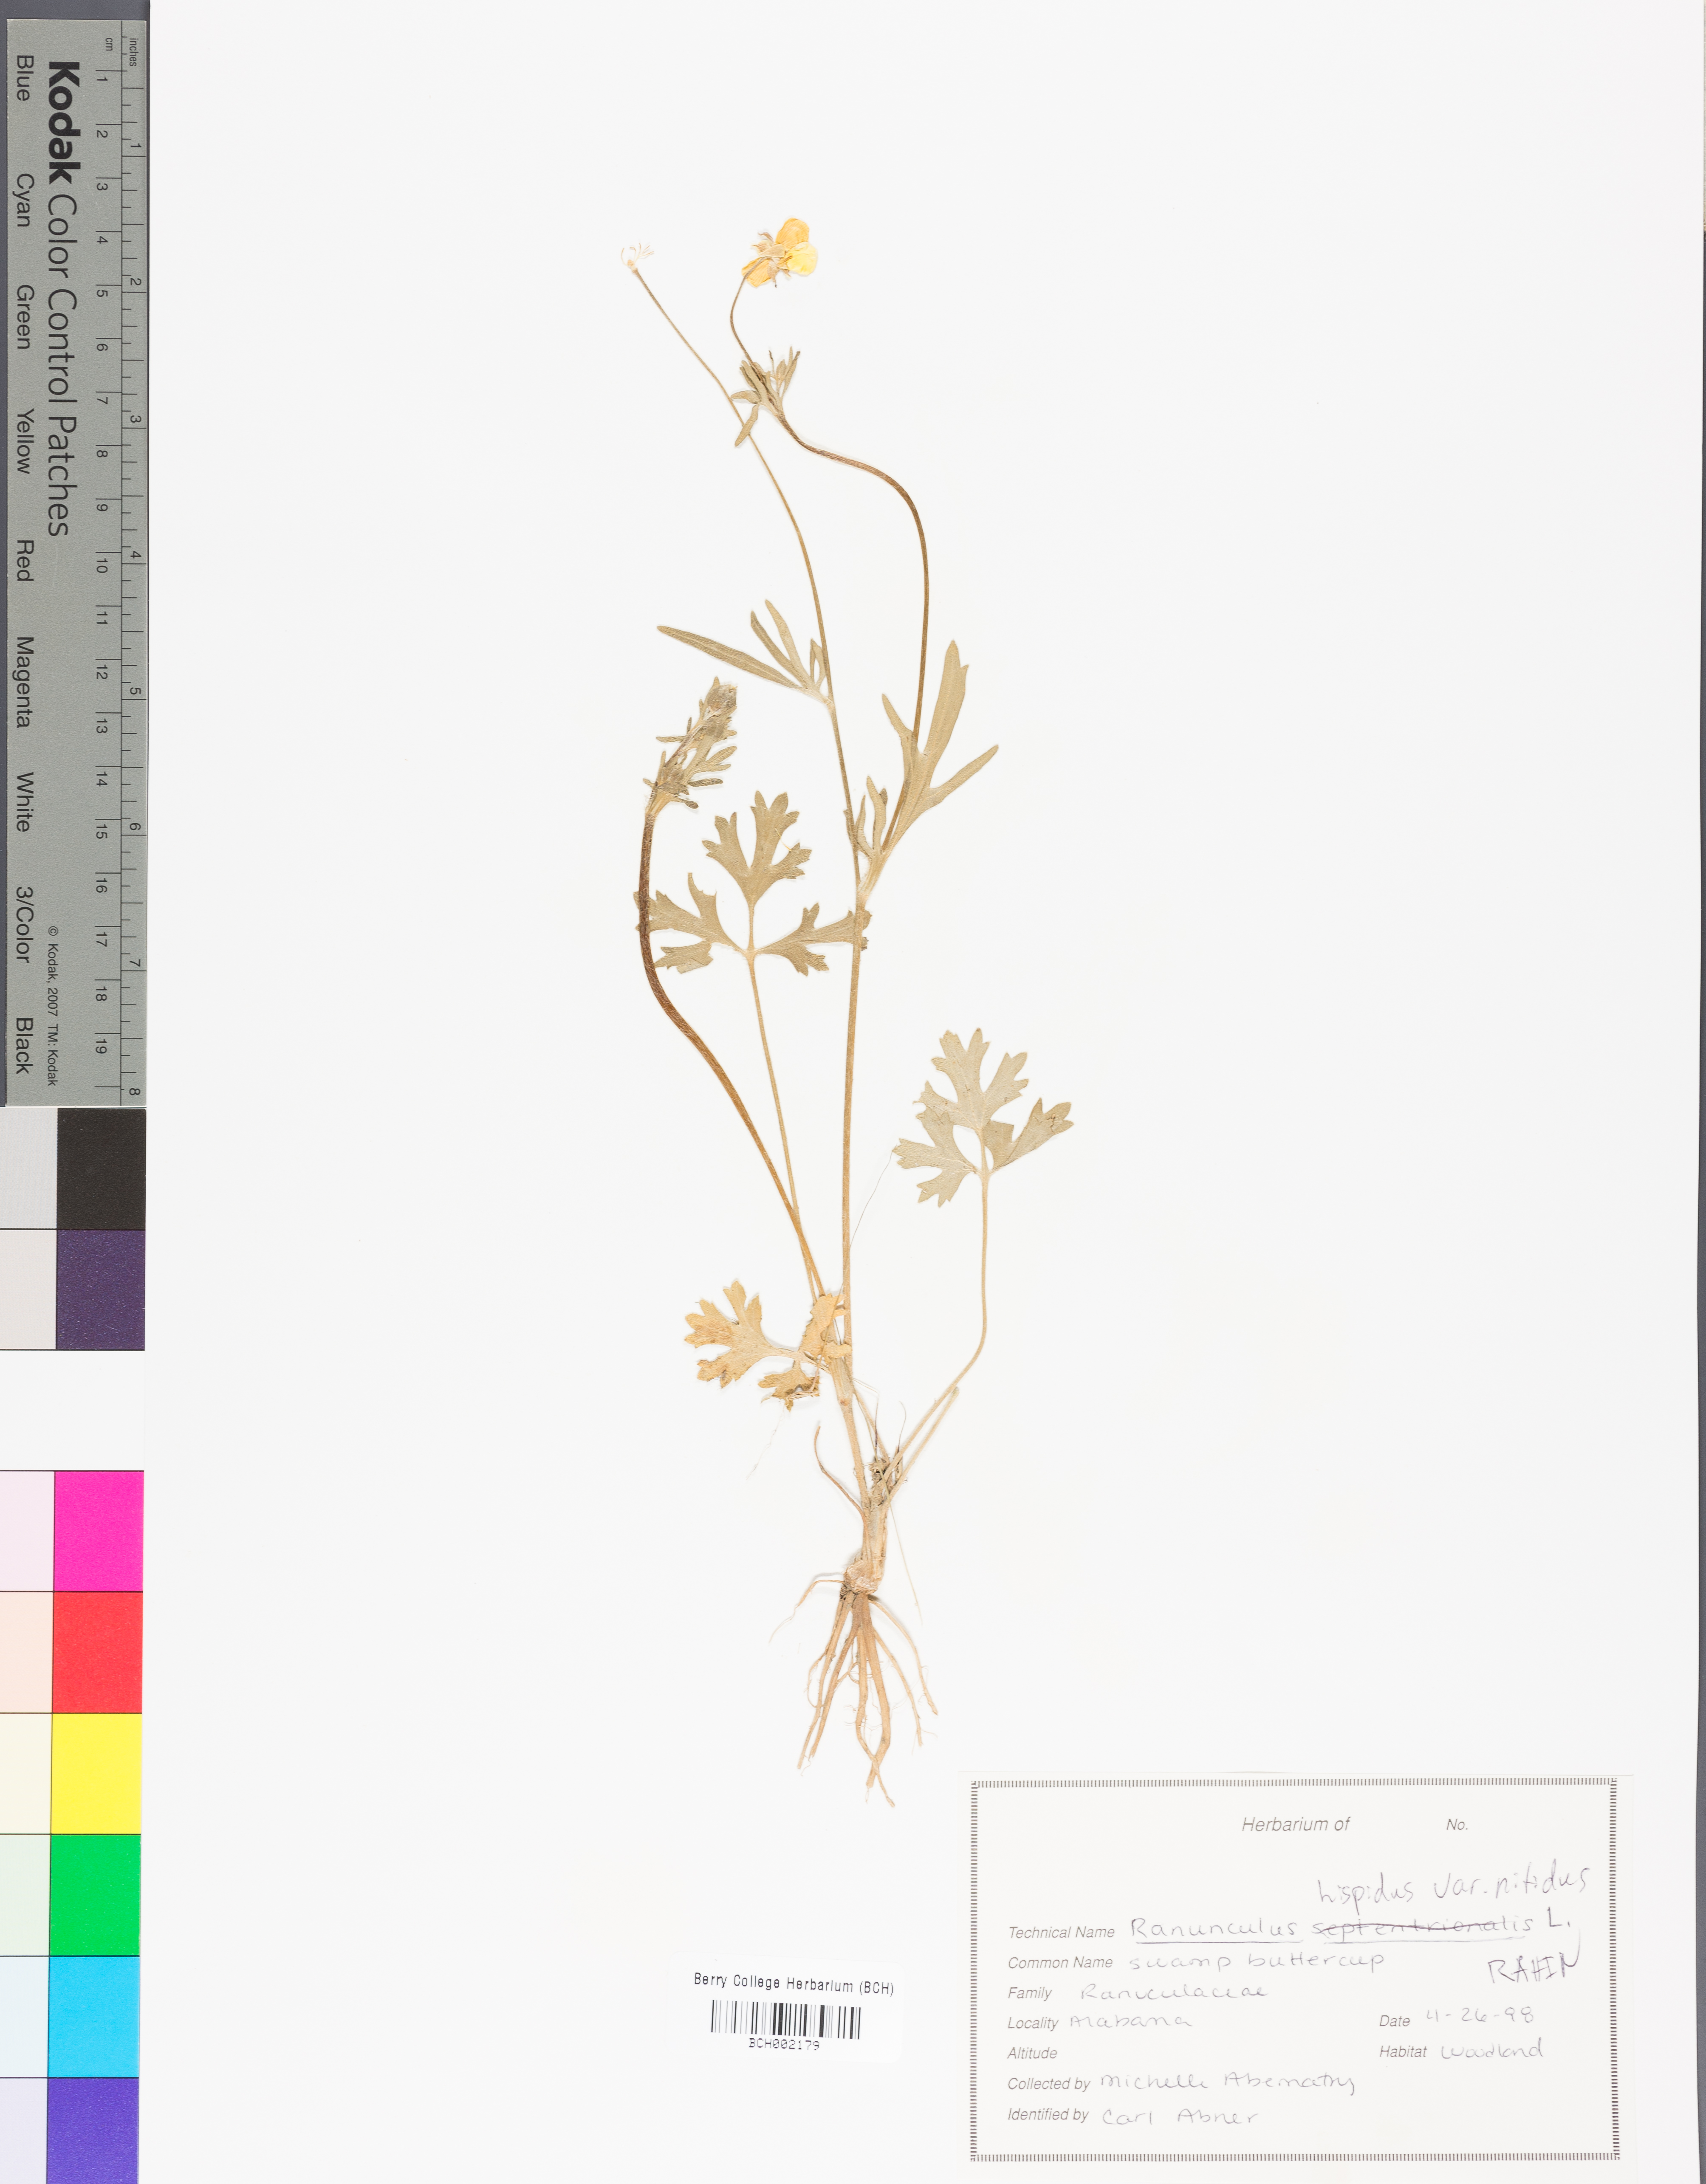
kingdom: Plantae
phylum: Tracheophyta
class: Magnoliopsida
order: Ranunculales
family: Ranunculaceae
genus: Ranunculus
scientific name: Ranunculus hispidus
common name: Bristly buttercup
